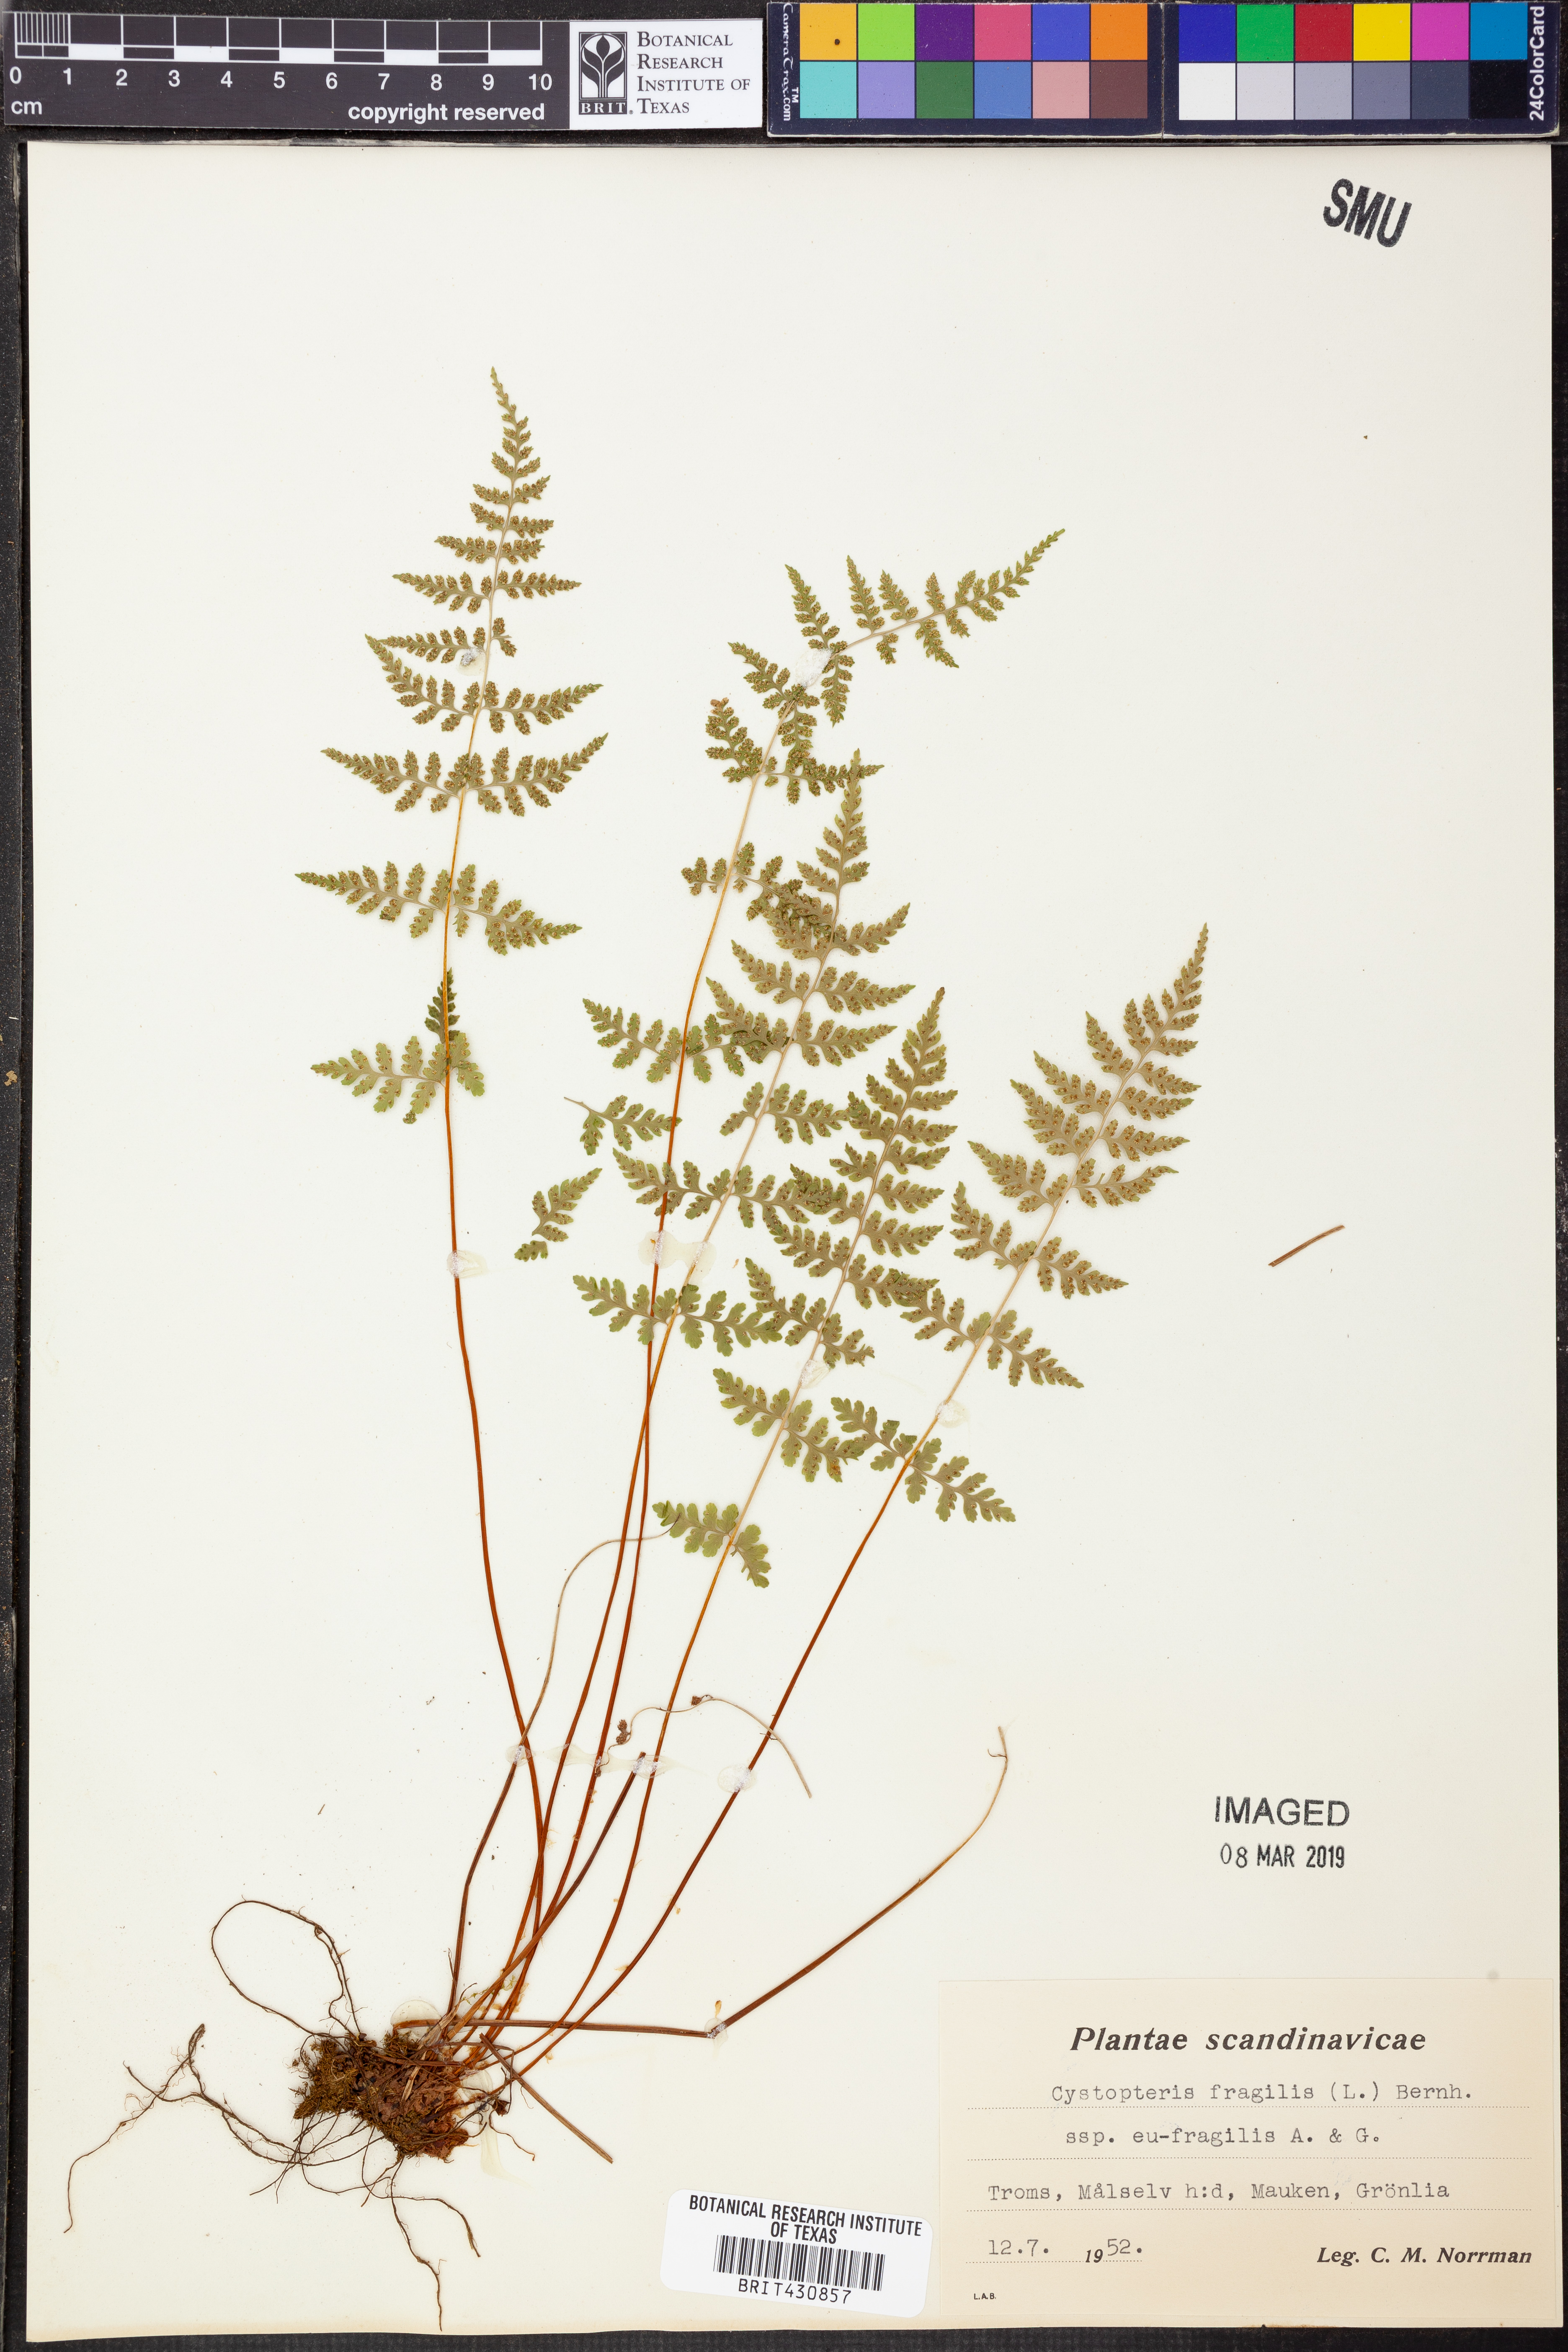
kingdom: Plantae
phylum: Tracheophyta
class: Polypodiopsida
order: Polypodiales
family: Cystopteridaceae
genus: Cystopteris
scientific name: Cystopteris fragilis
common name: Brittle bladder fern
